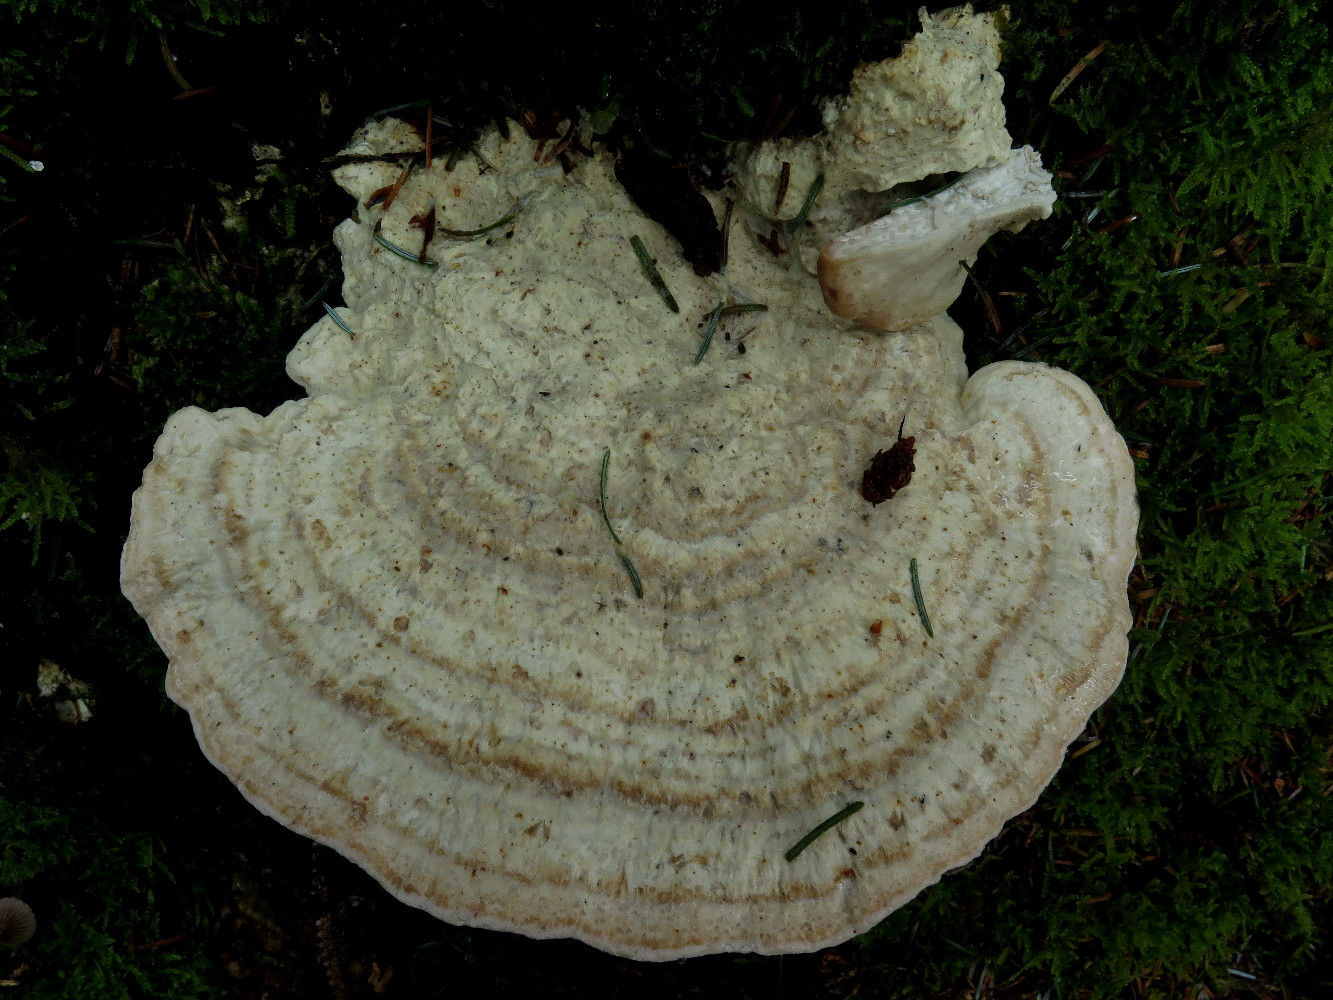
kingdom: Fungi
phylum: Basidiomycota
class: Agaricomycetes
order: Polyporales
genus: Calcipostia
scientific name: Calcipostia guttulata
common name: dråbe-kødporesvamp
